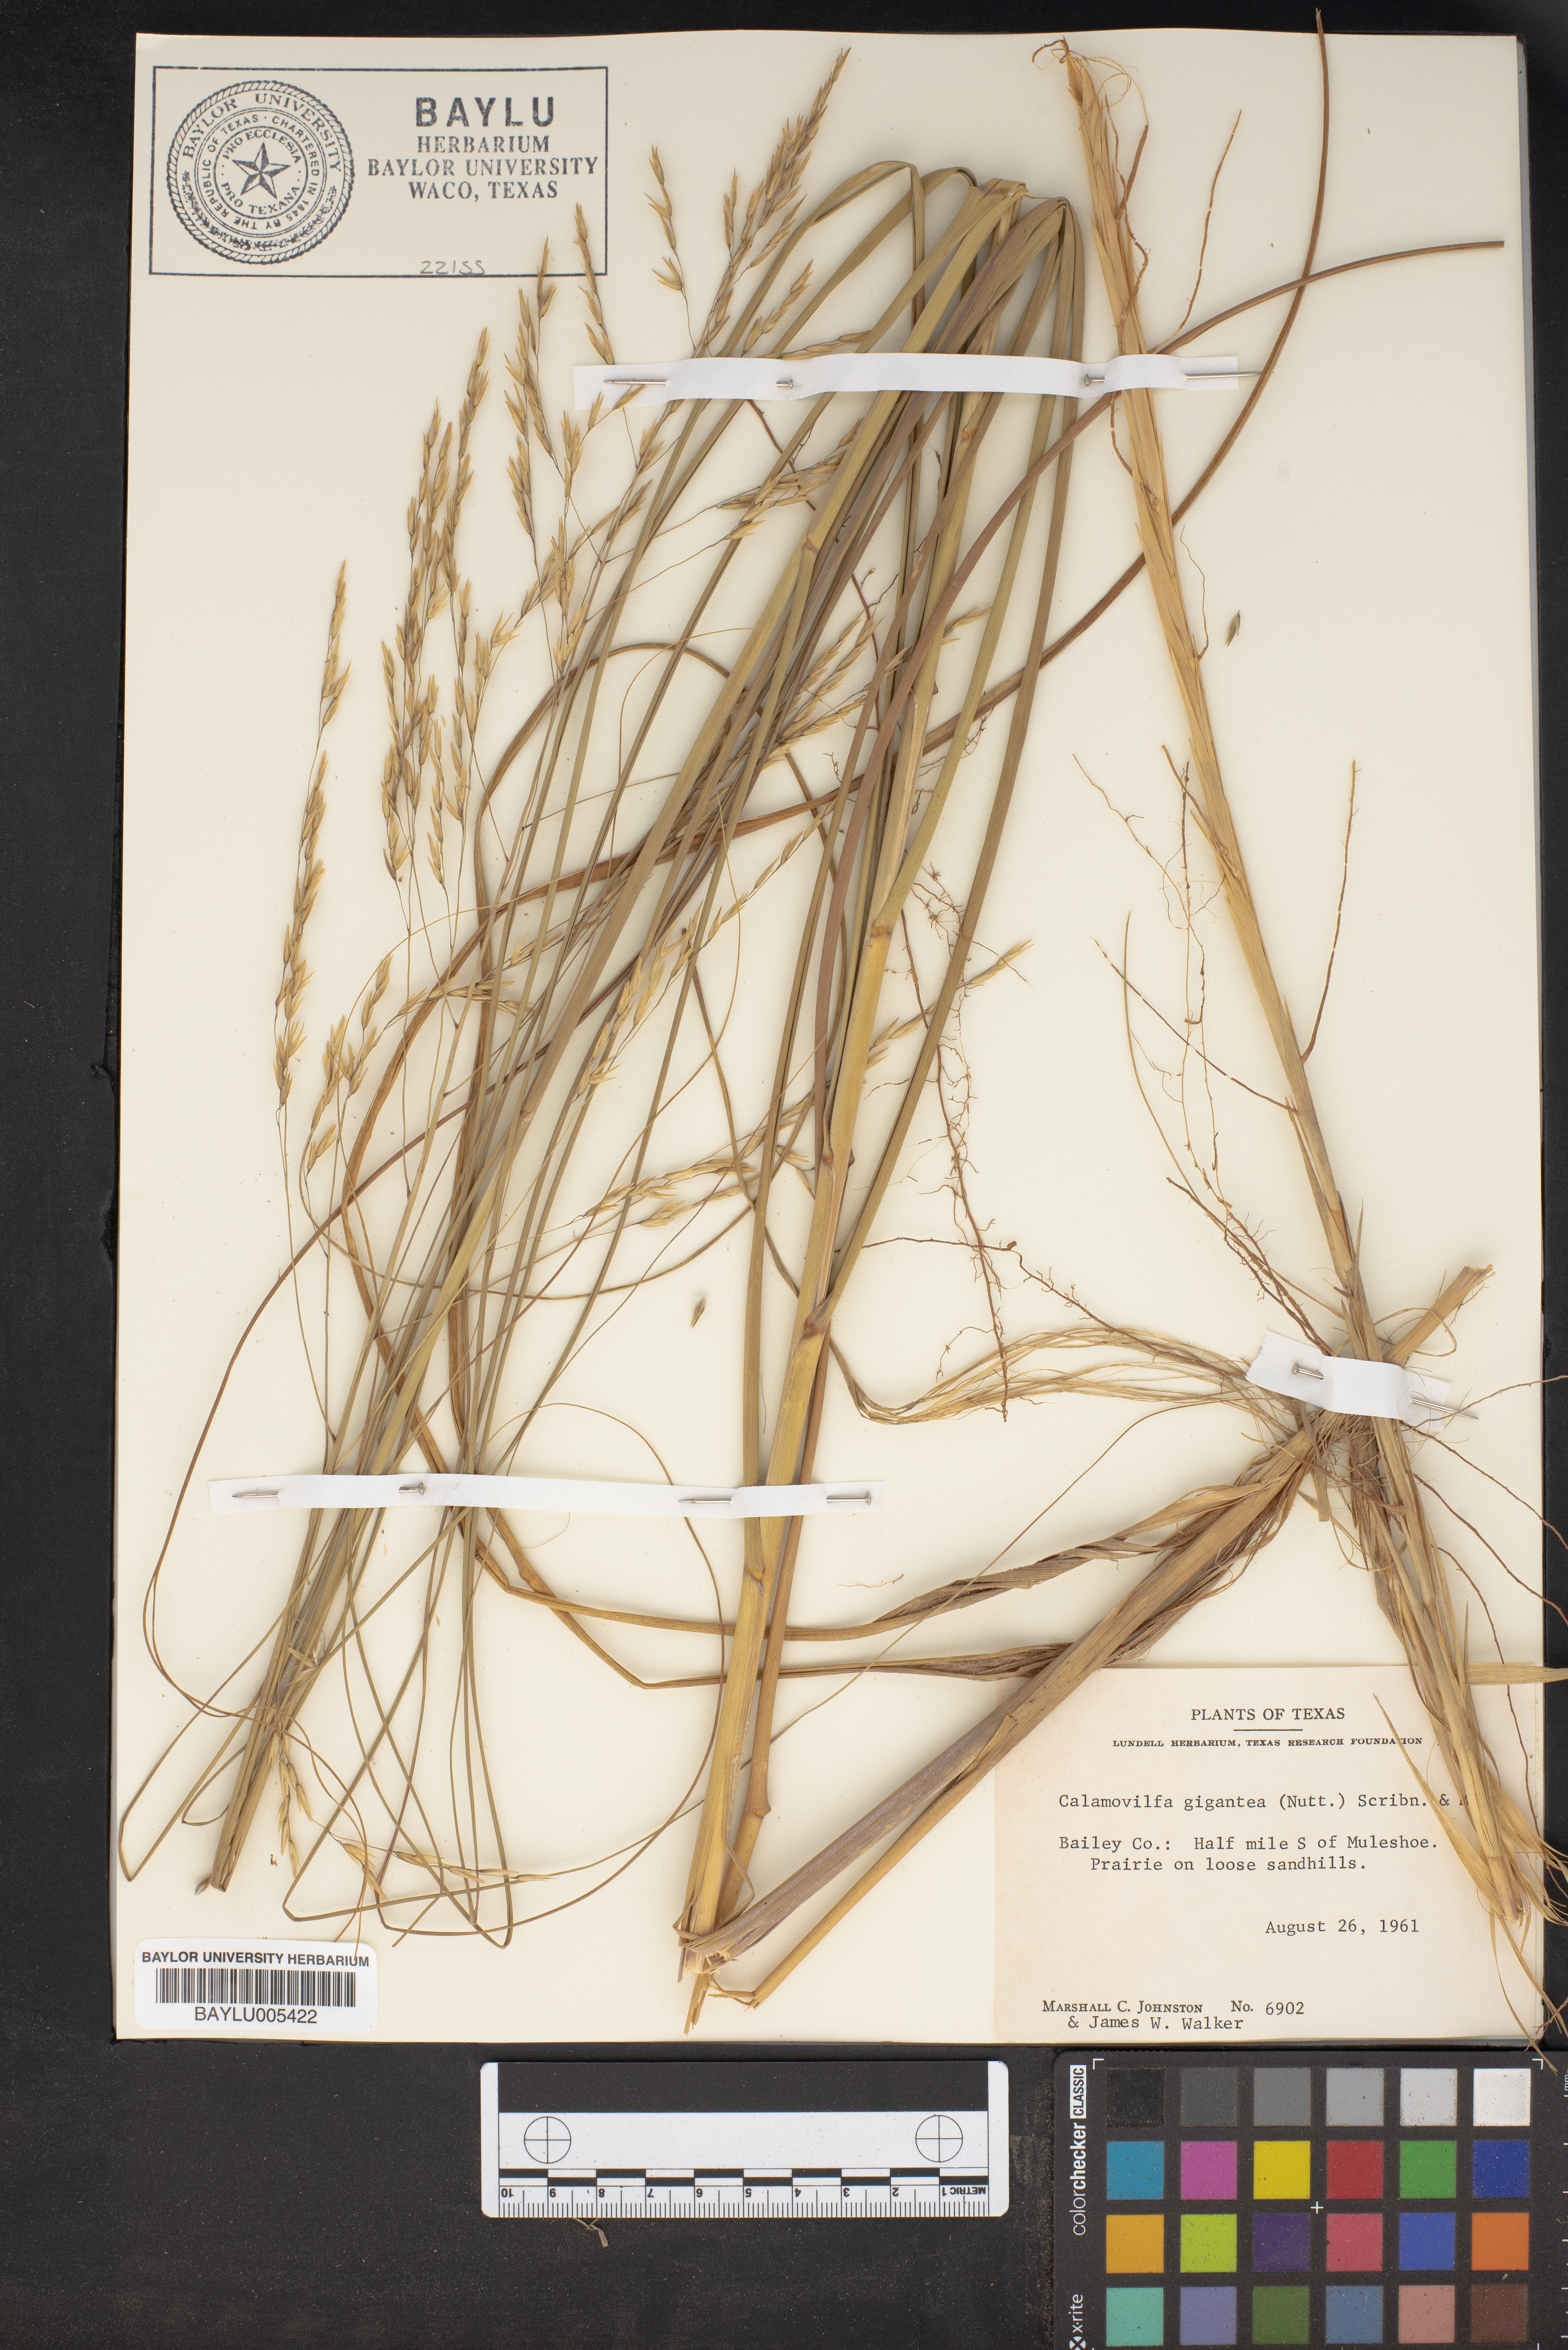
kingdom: Plantae
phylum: Tracheophyta
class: Liliopsida
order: Poales
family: Poaceae
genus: Sporobolus
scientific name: Sporobolus arenicola
